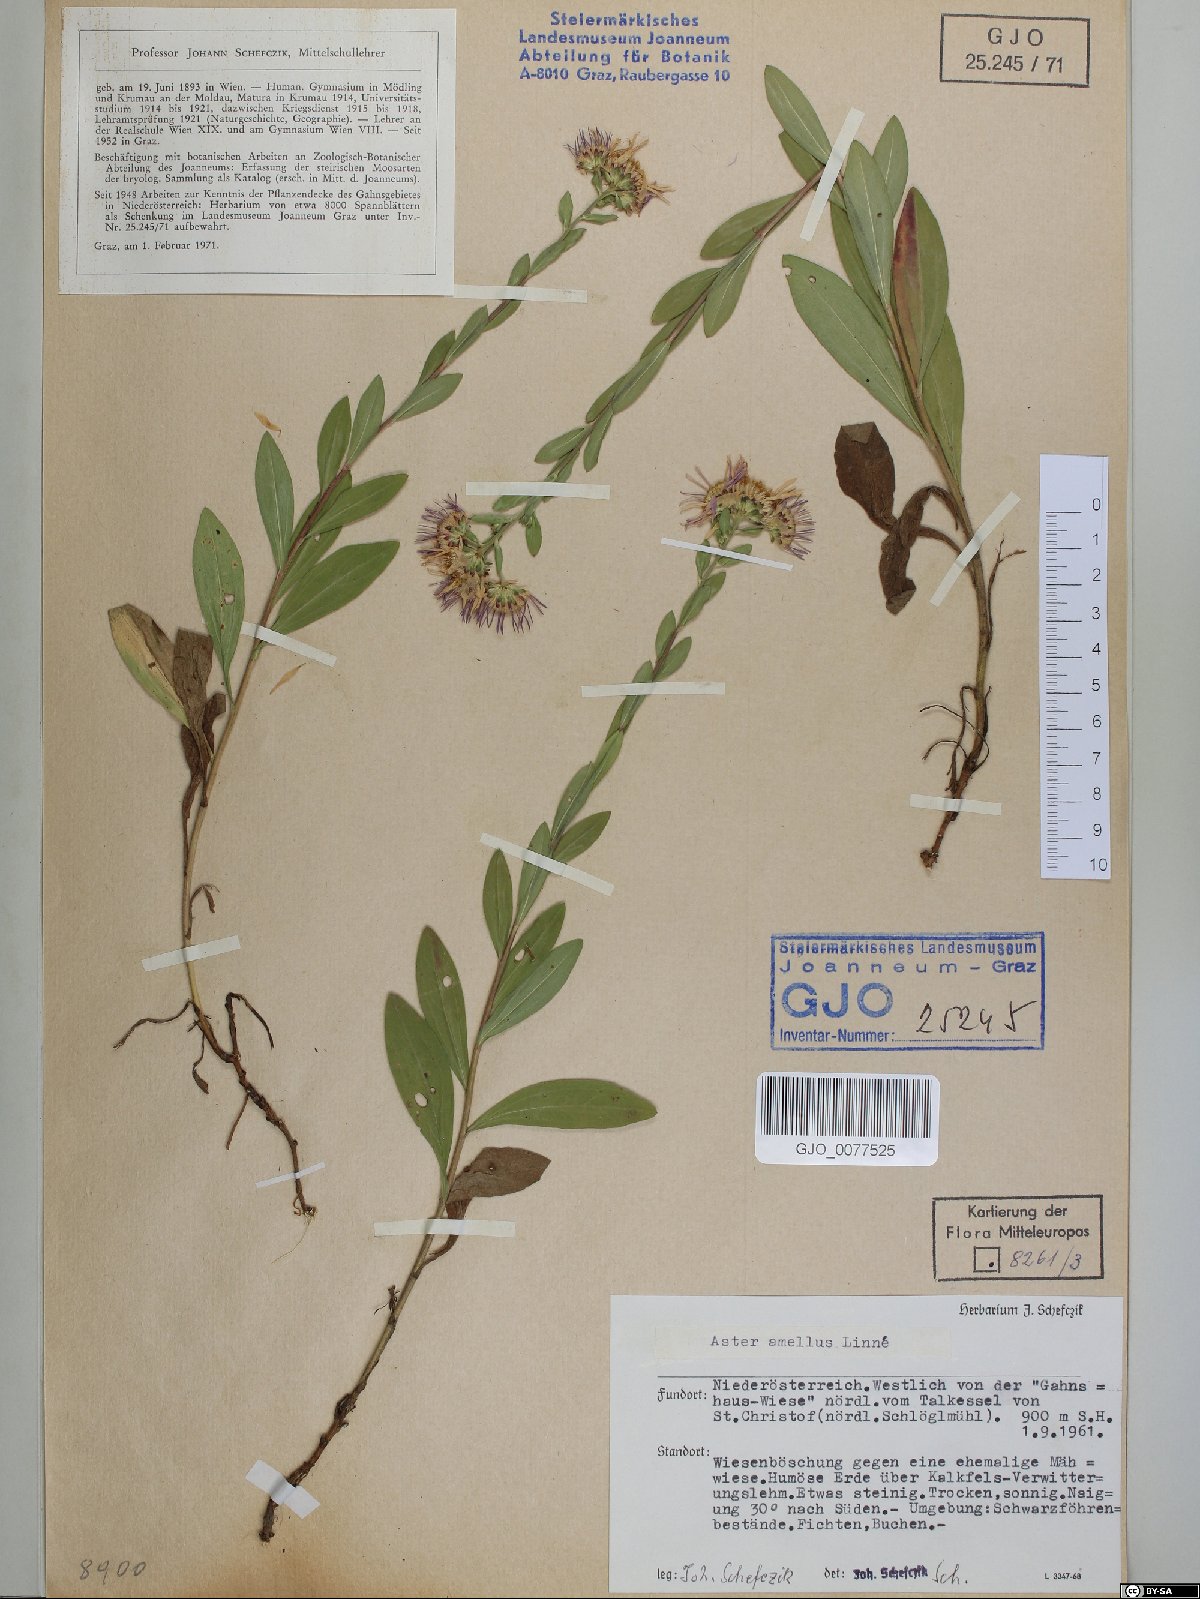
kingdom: Plantae
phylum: Tracheophyta
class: Magnoliopsida
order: Asterales
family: Asteraceae
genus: Aster
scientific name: Aster amellus
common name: European michaelmas daisy
